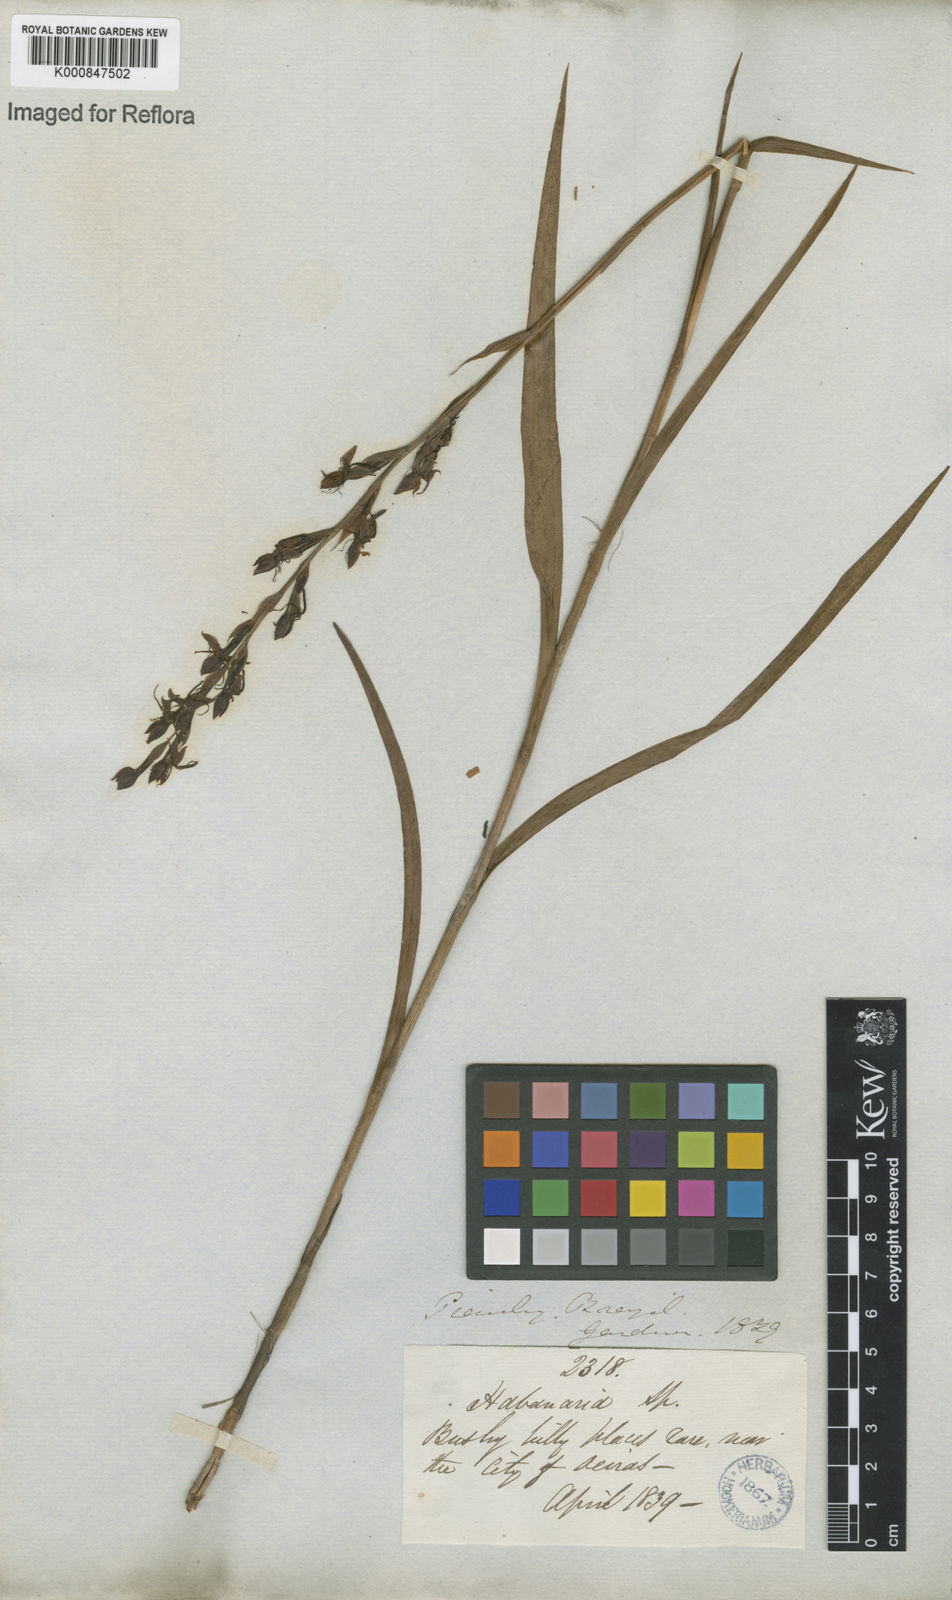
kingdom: Plantae
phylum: Tracheophyta
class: Liliopsida
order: Asparagales
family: Orchidaceae
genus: Habenaria
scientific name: Habenaria
